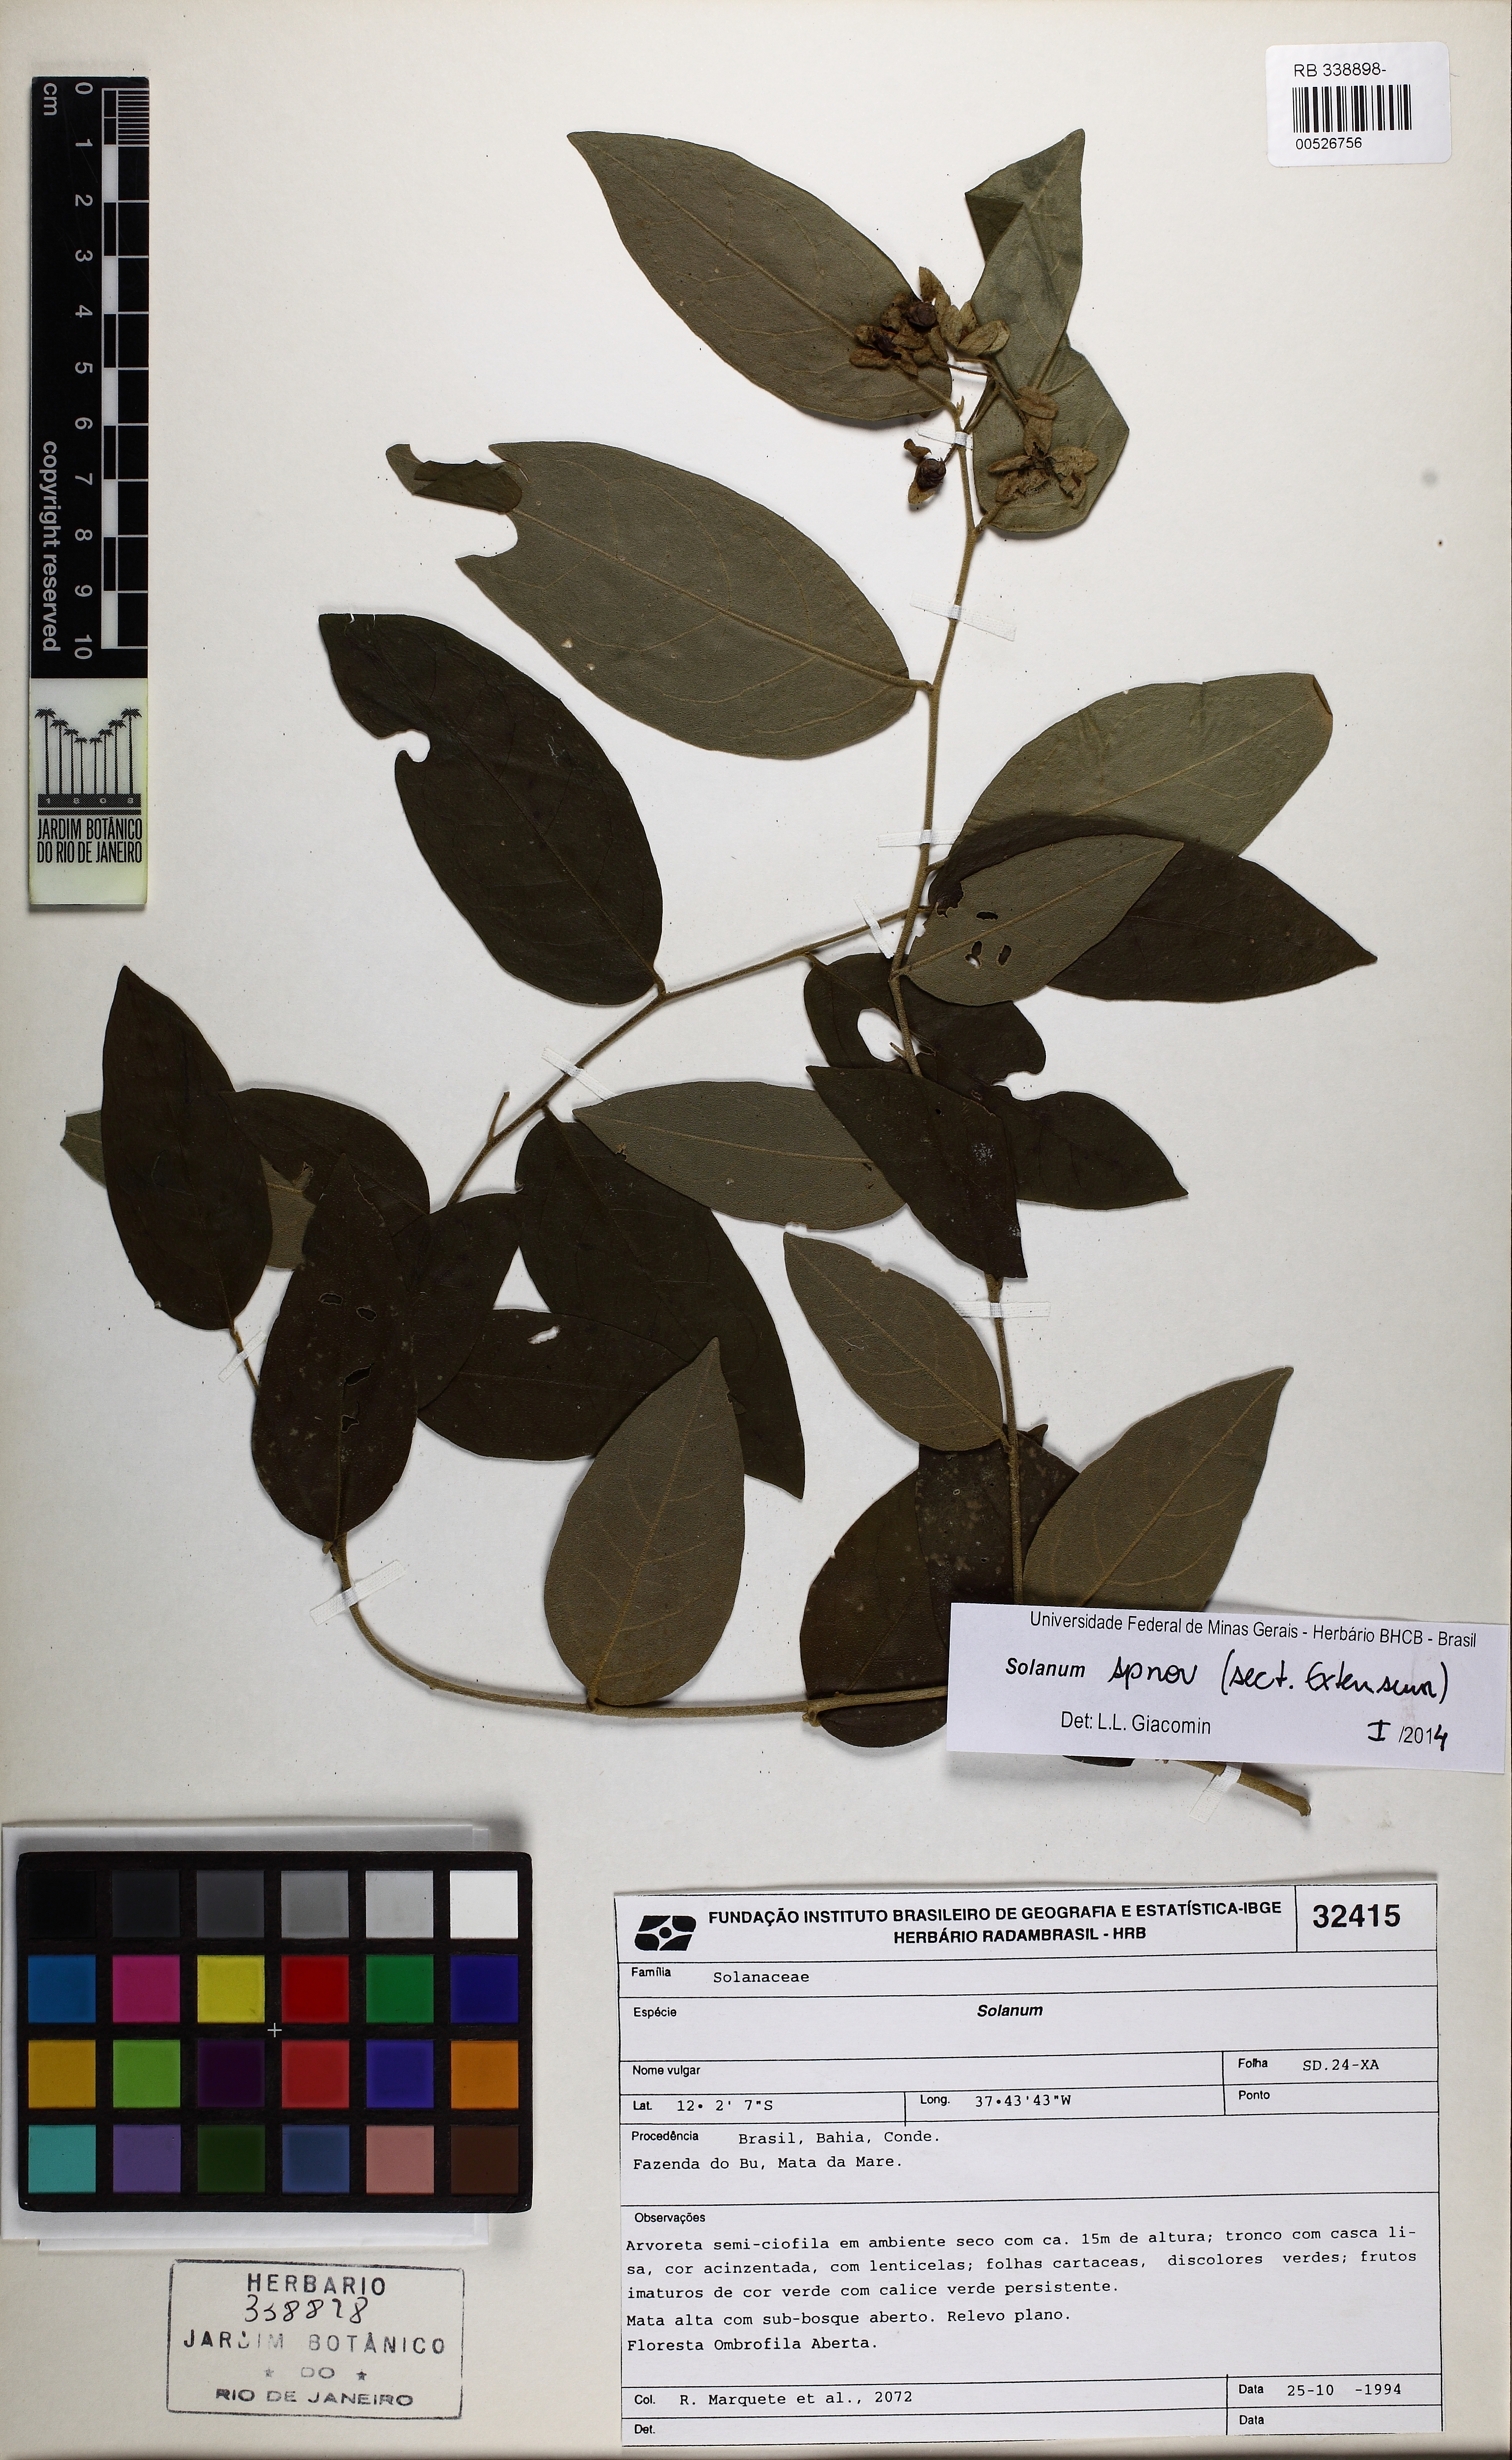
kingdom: Plantae
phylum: Tracheophyta
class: Magnoliopsida
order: Solanales
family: Solanaceae
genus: Solanum
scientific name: Solanum
